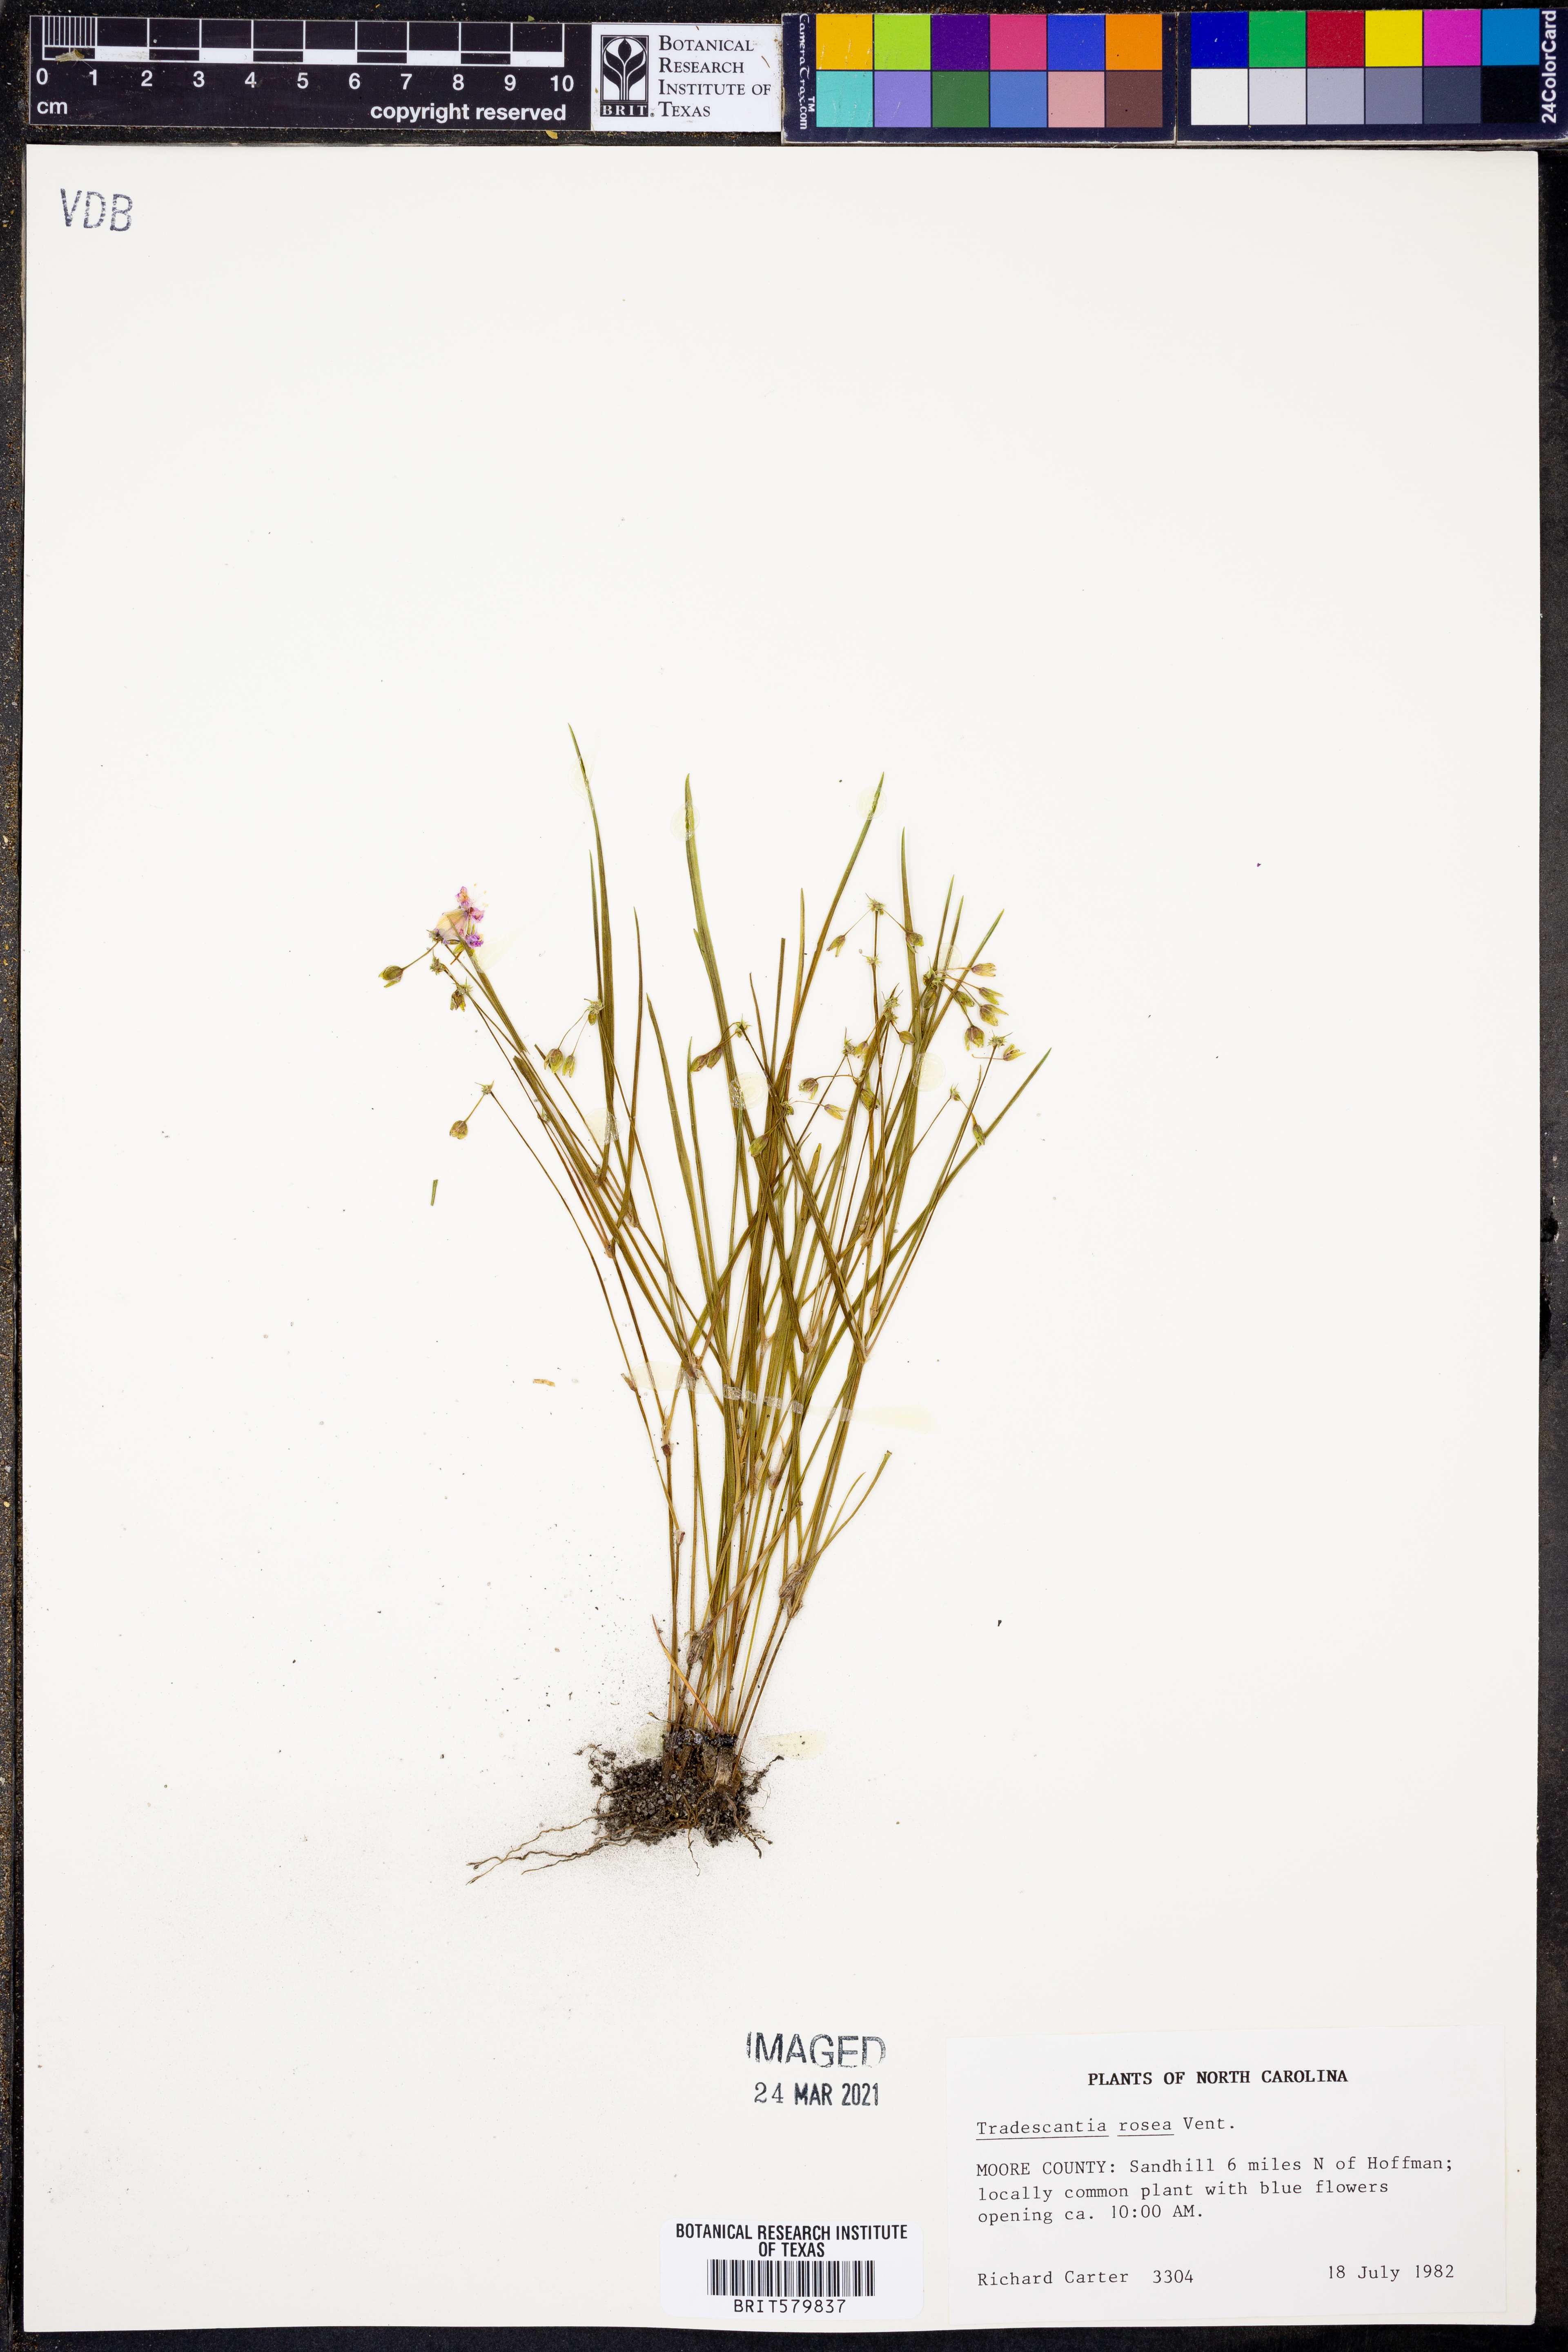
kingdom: Plantae
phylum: Tracheophyta
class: Liliopsida
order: Commelinales
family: Commelinaceae
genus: Callisia
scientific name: Callisia rosea
